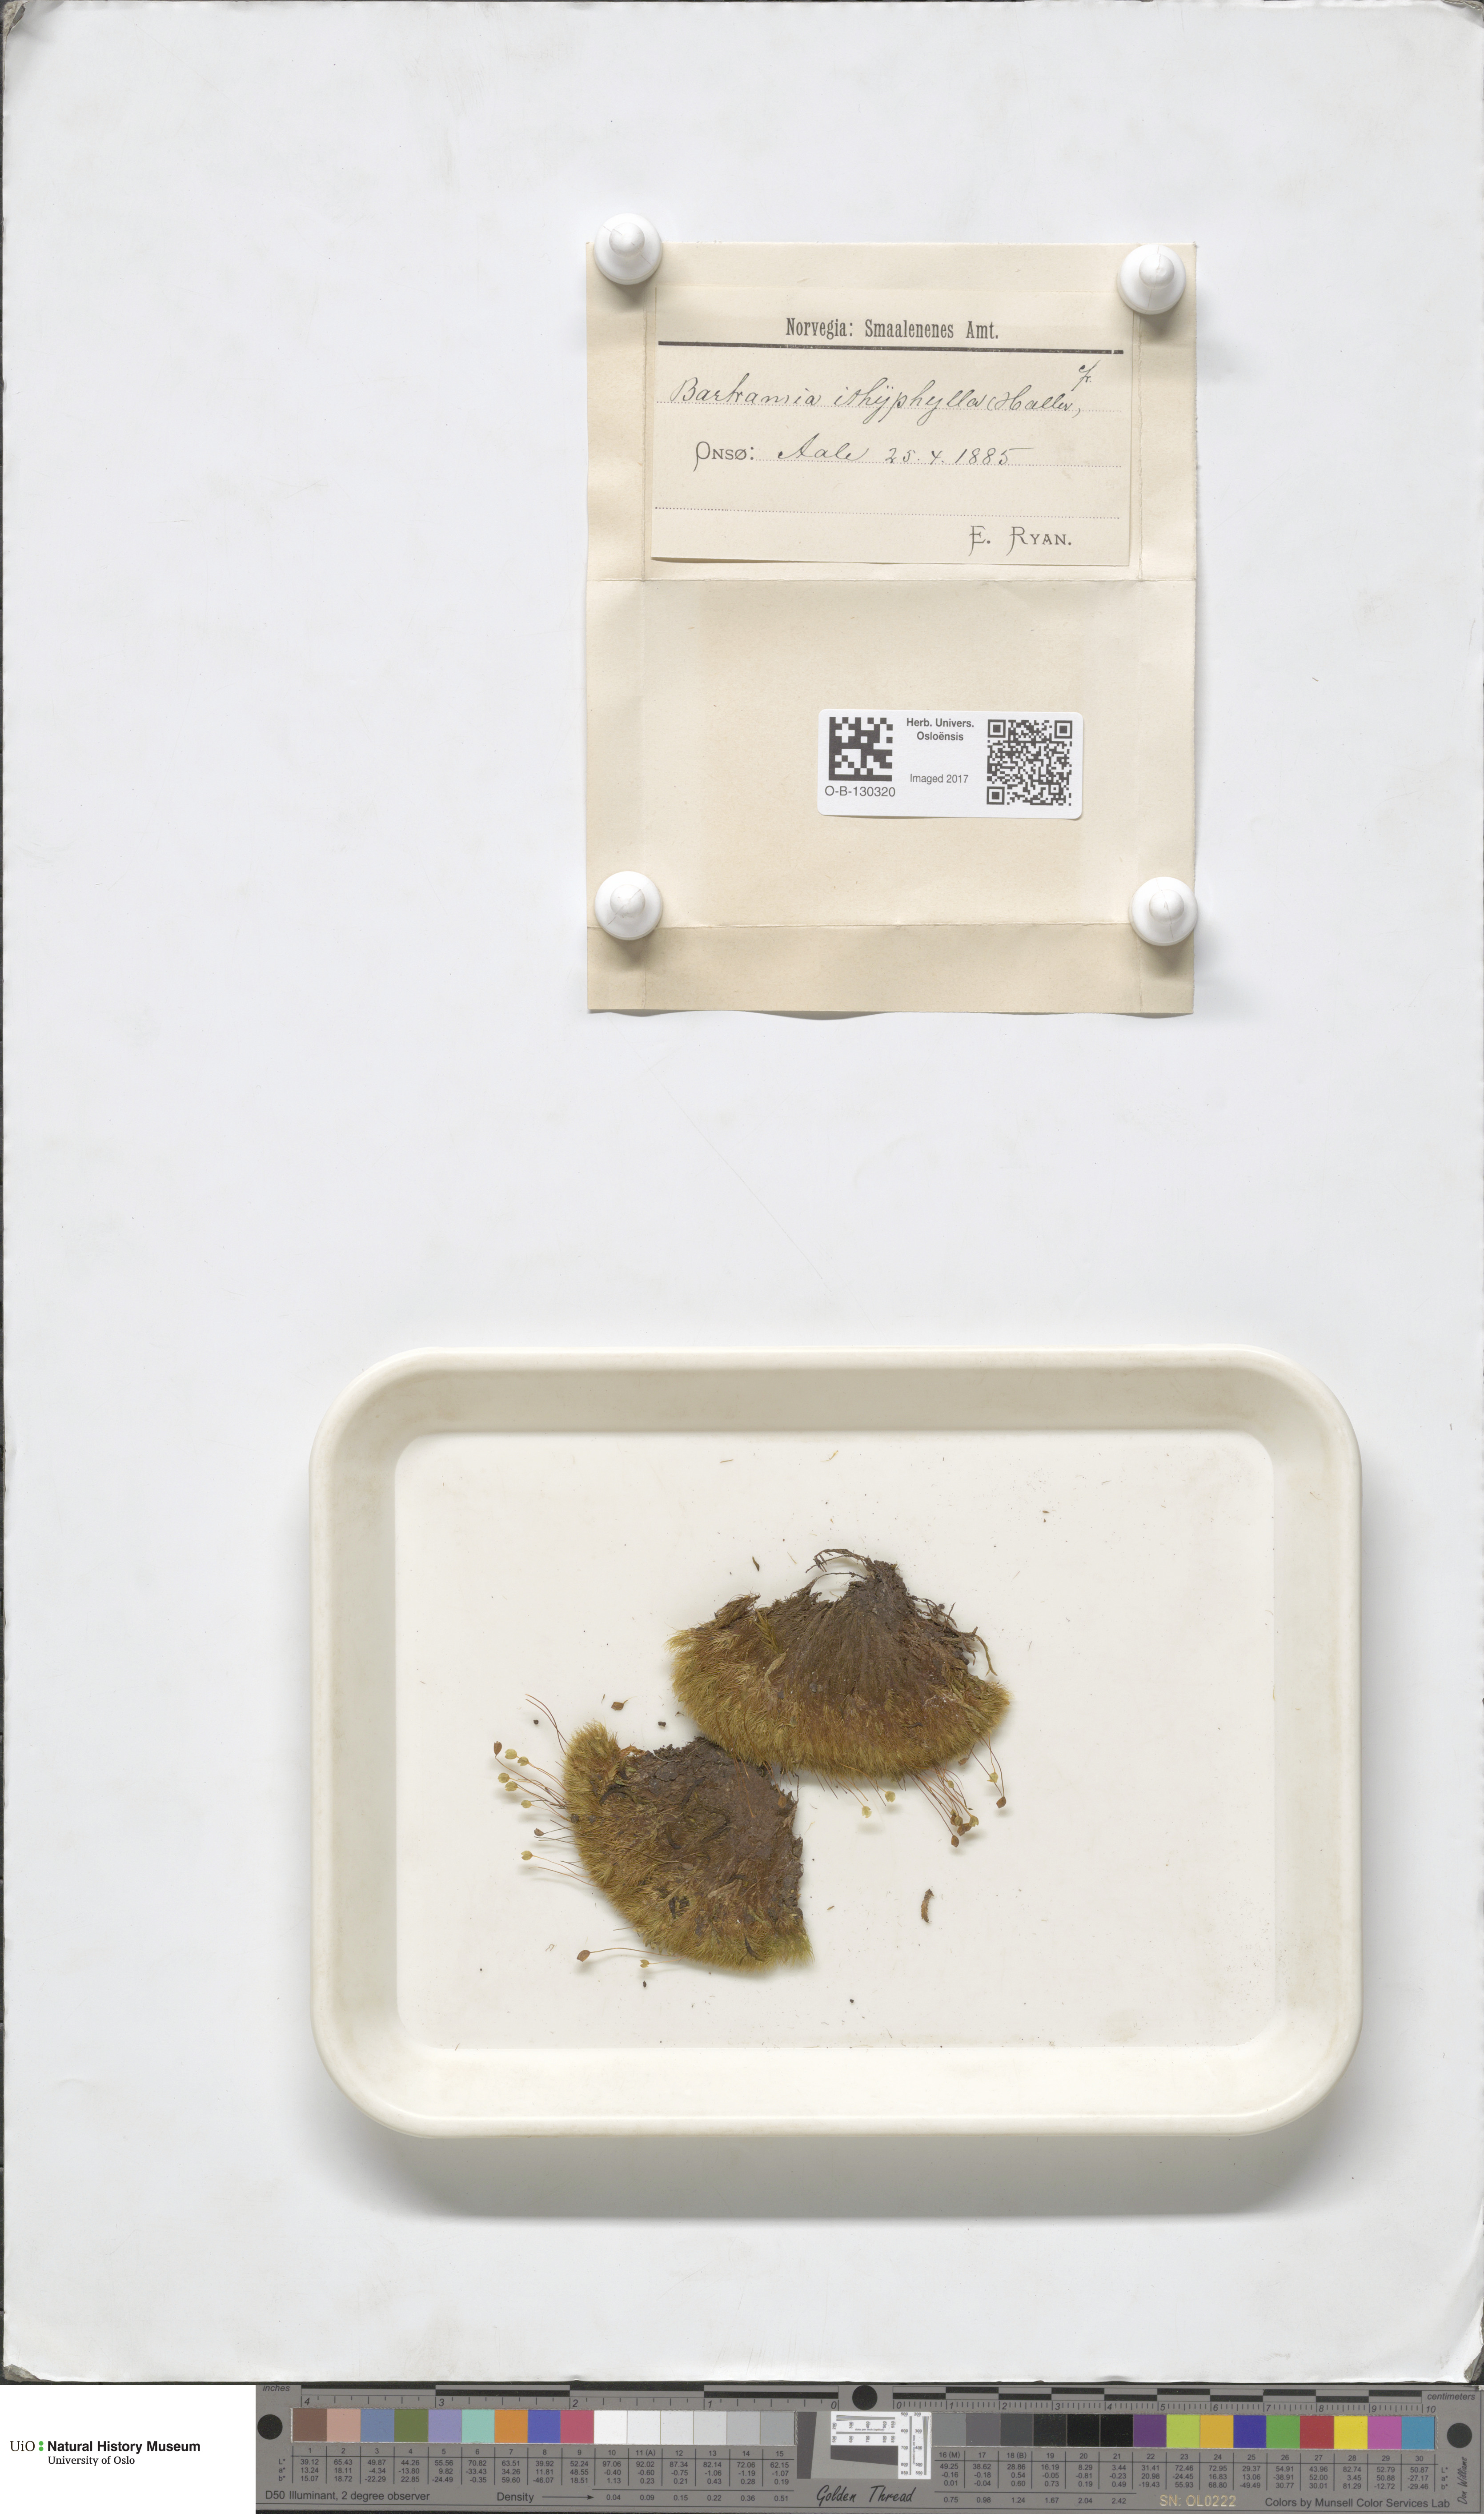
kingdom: Plantae
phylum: Bryophyta
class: Bryopsida
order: Bartramiales
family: Bartramiaceae
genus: Bartramia
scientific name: Bartramia ithyphylla
